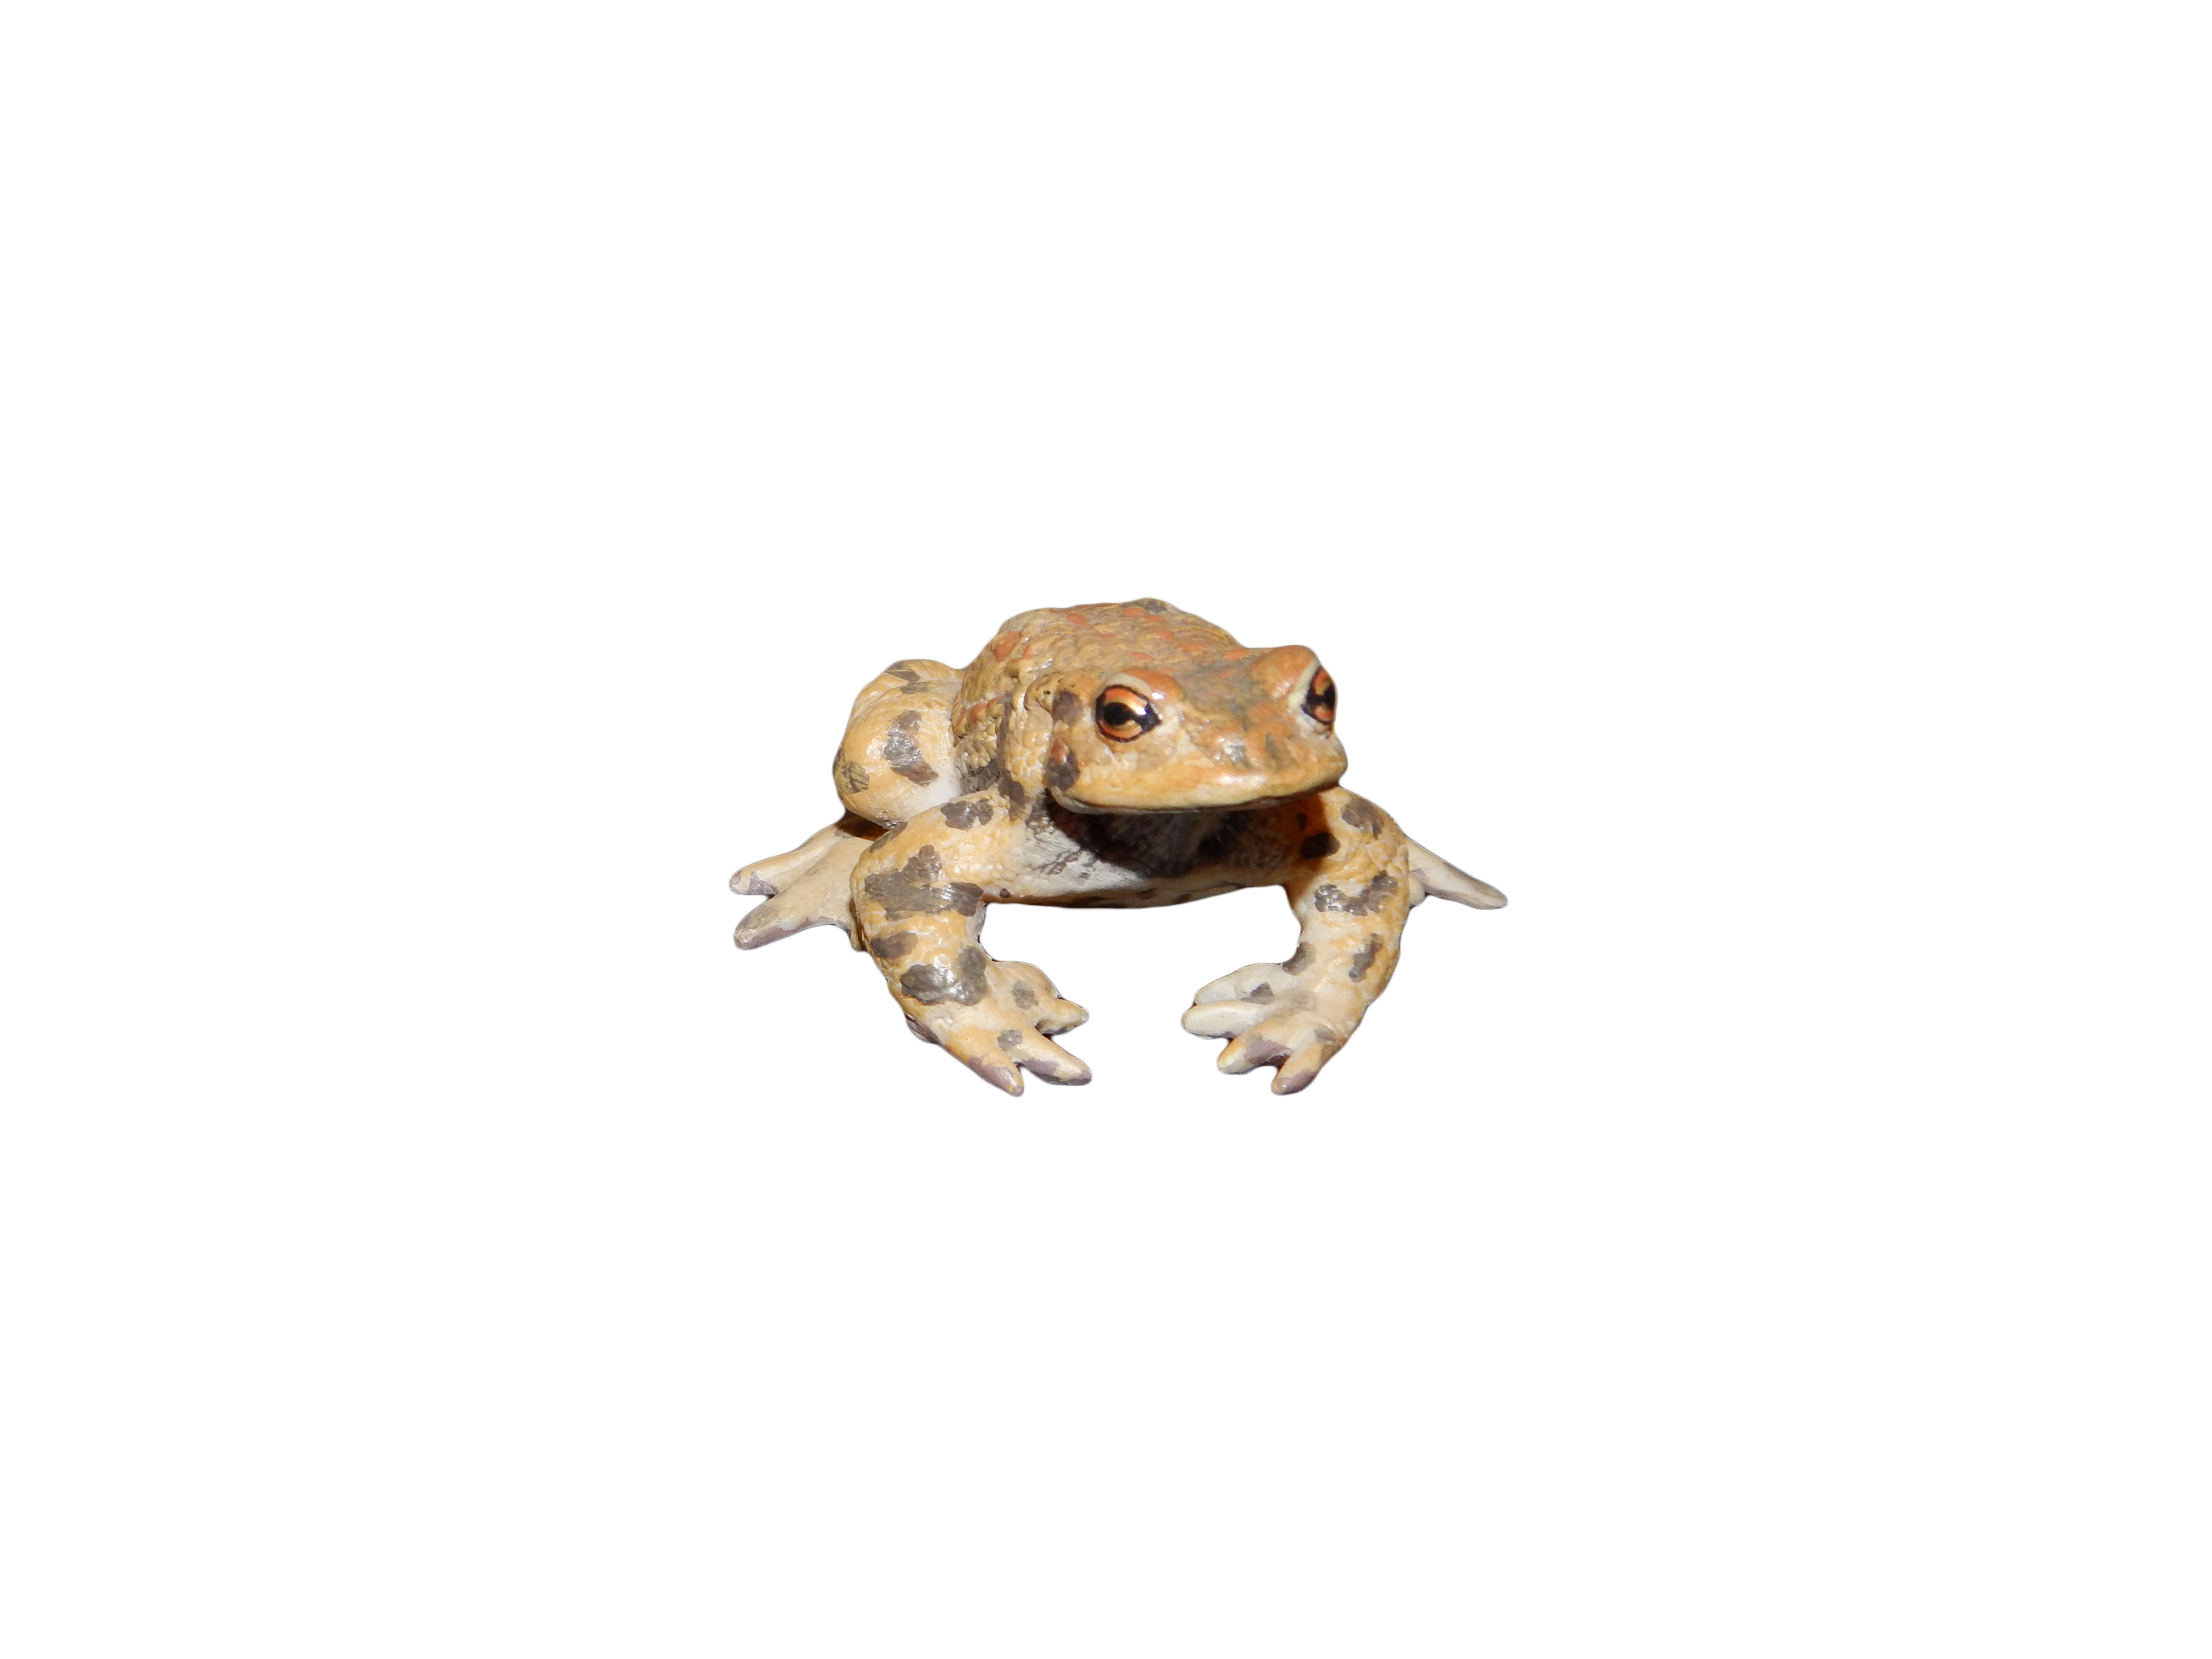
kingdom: Animalia
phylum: Chordata
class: Amphibia
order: Anura
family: Bufonidae
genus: Bufo
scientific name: Bufo bufo
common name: Common toad
